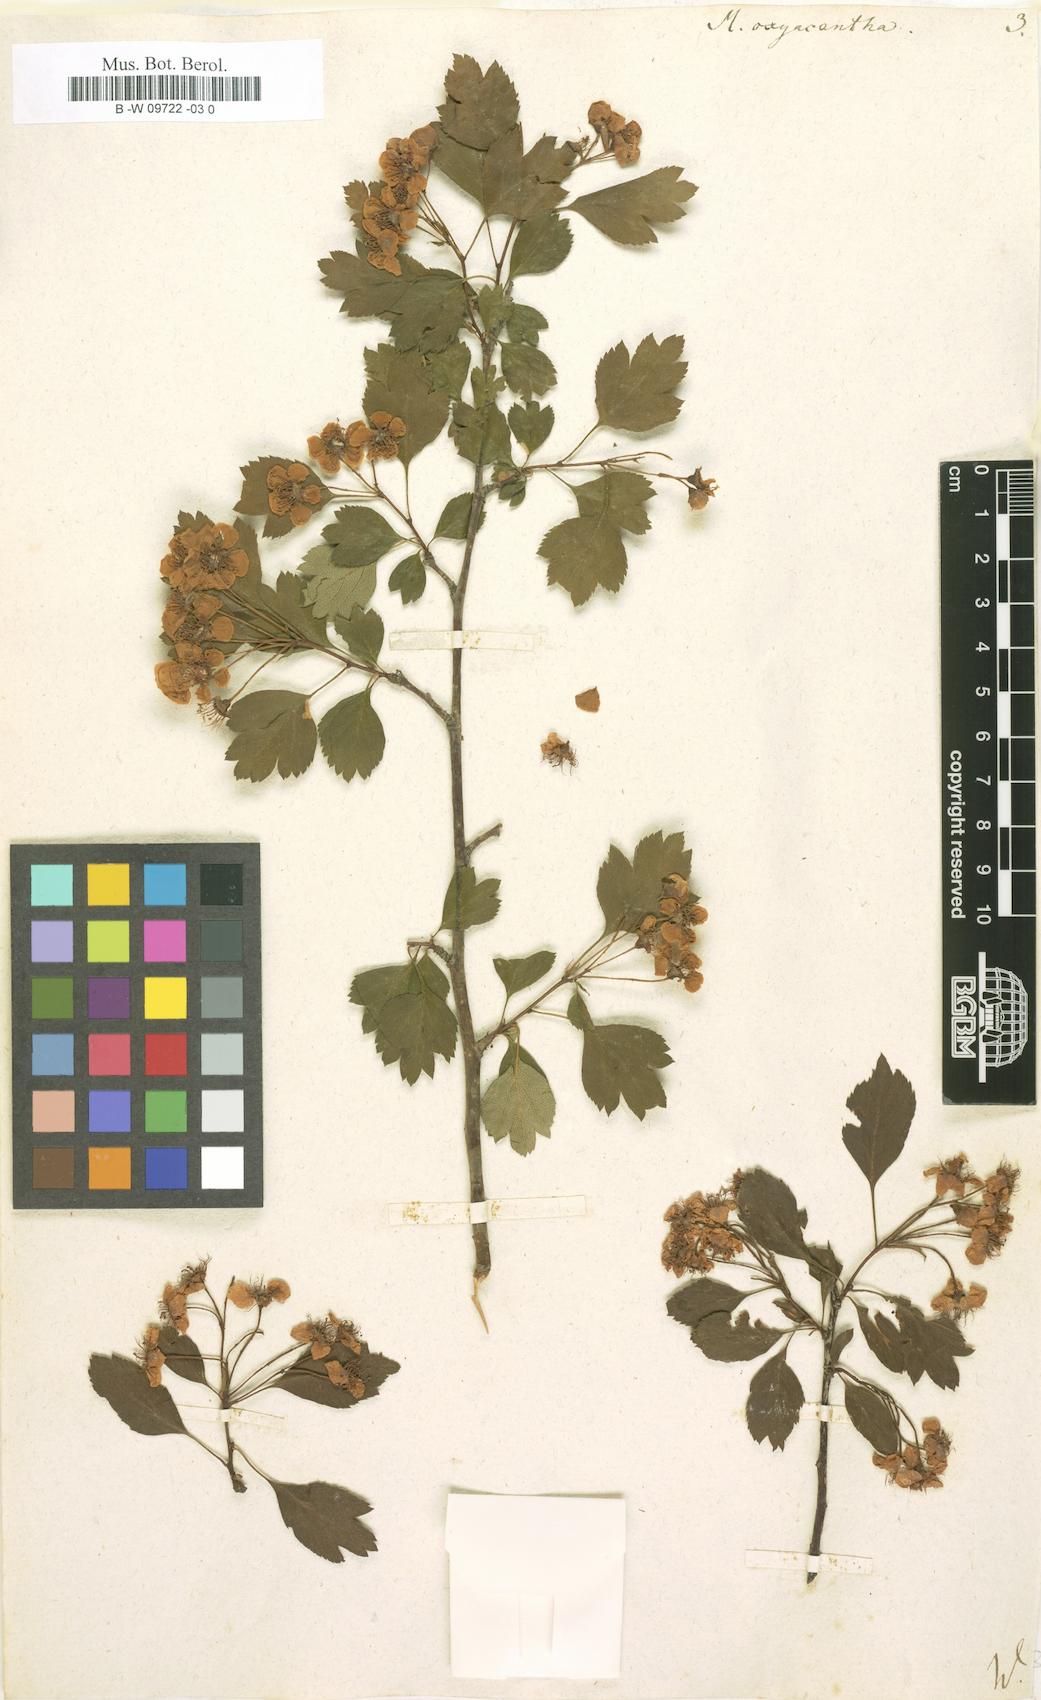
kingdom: Plantae
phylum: Tracheophyta
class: Magnoliopsida
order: Rosales
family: Rosaceae
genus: Crataegus
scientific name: Crataegus
